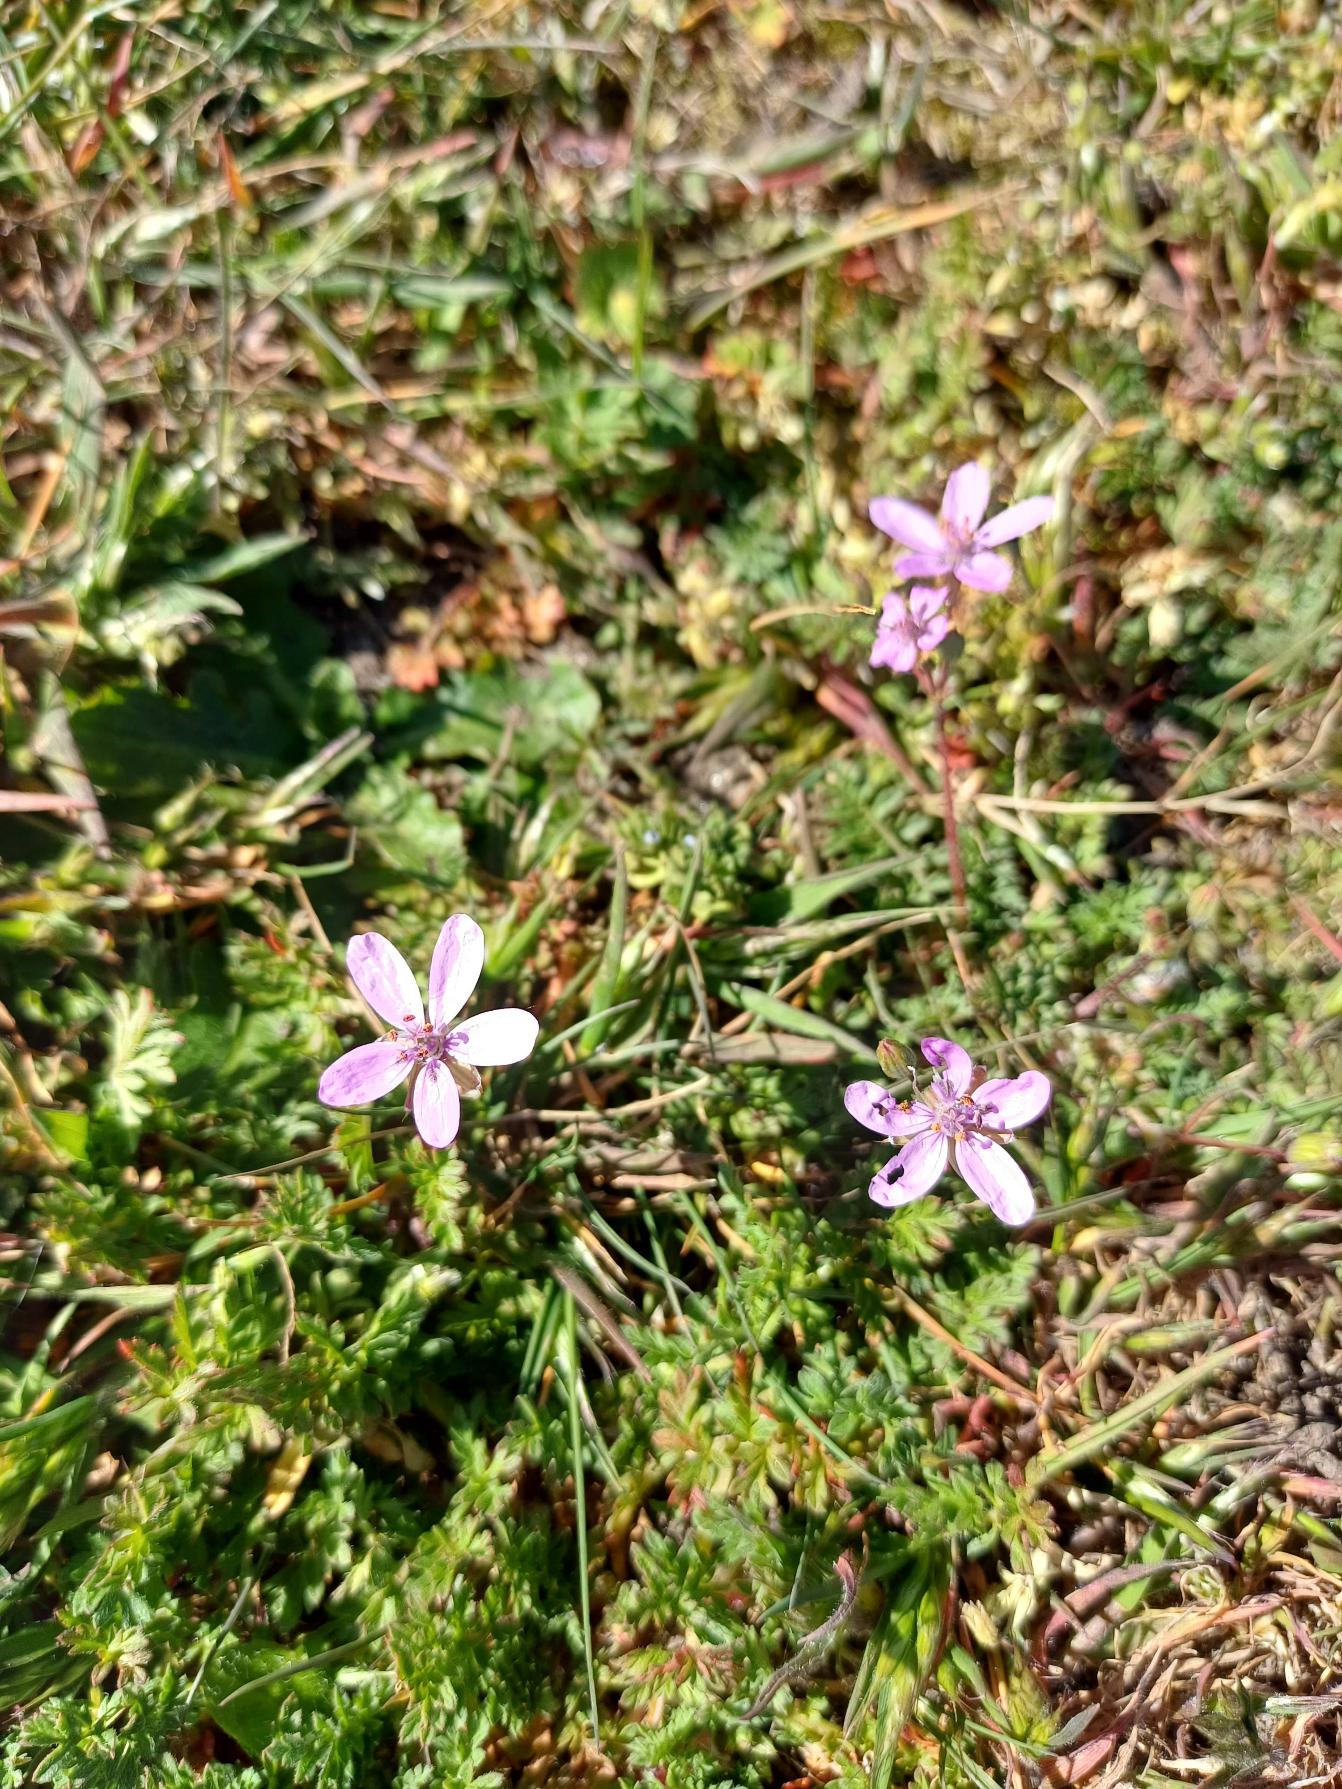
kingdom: Plantae
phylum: Tracheophyta
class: Magnoliopsida
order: Geraniales
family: Geraniaceae
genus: Erodium
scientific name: Erodium cicutarium
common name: Hejrenæb
